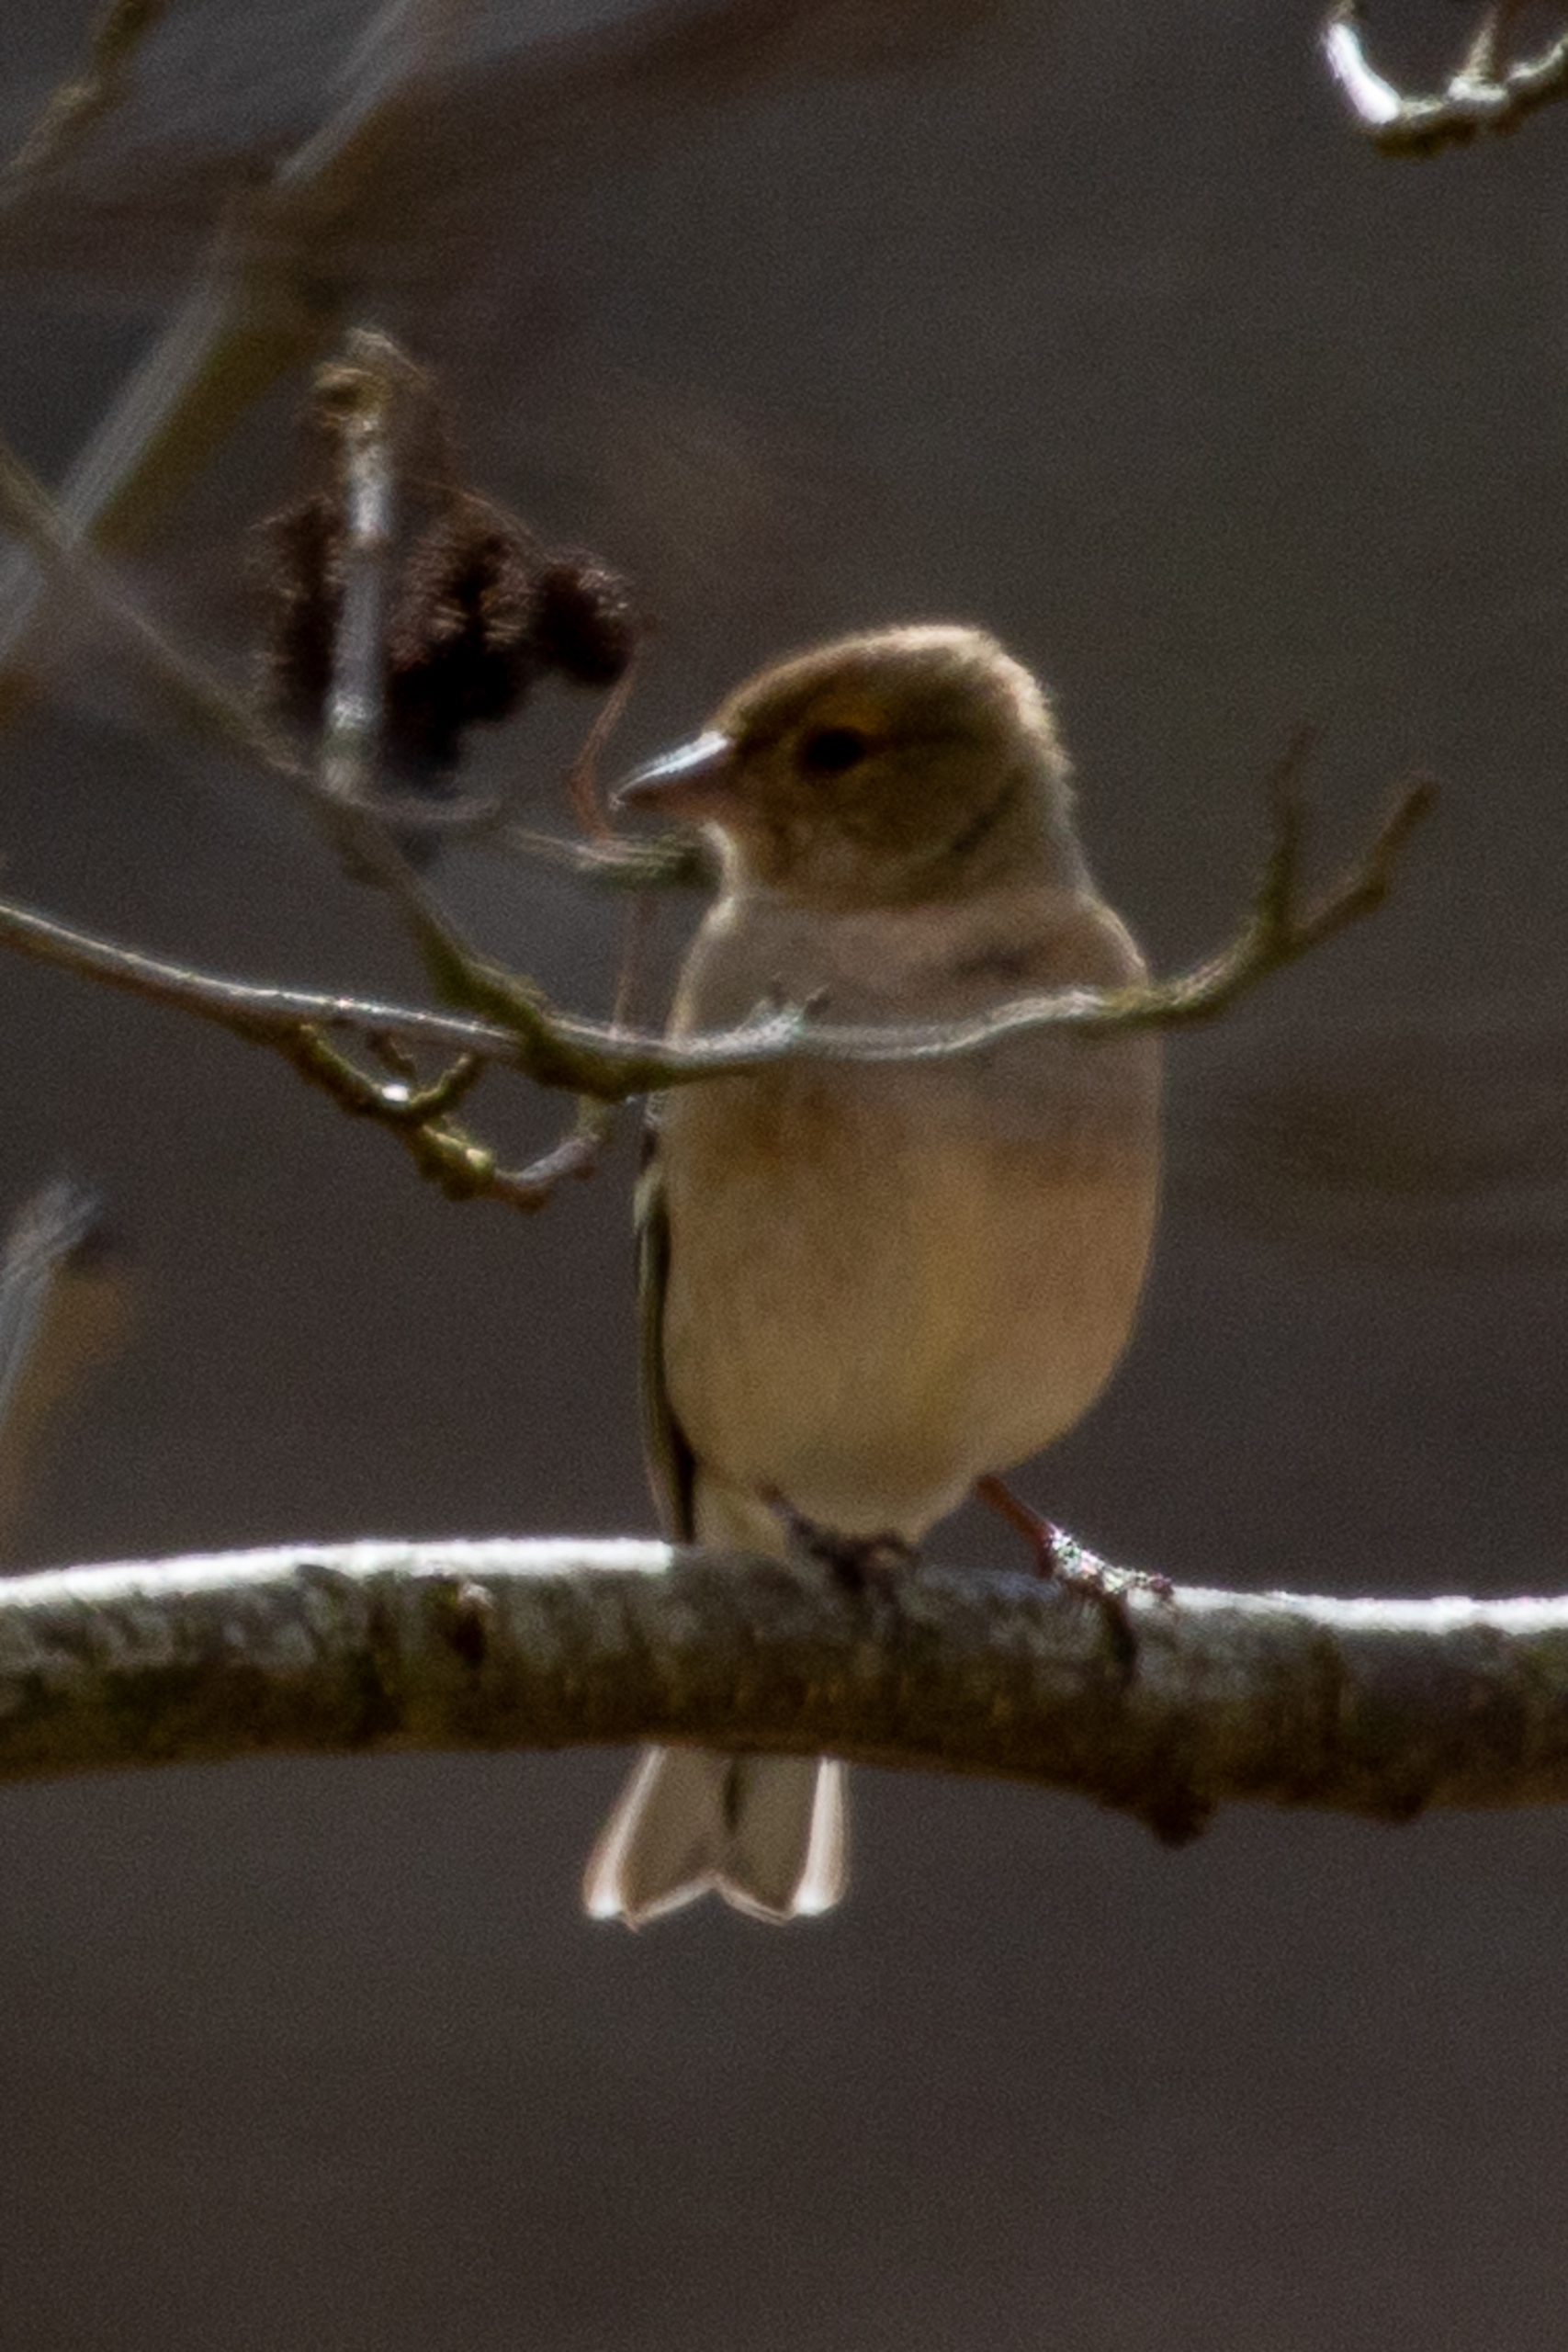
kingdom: Animalia
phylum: Chordata
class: Aves
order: Passeriformes
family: Fringillidae
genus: Fringilla
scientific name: Fringilla coelebs
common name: Bogfinke
